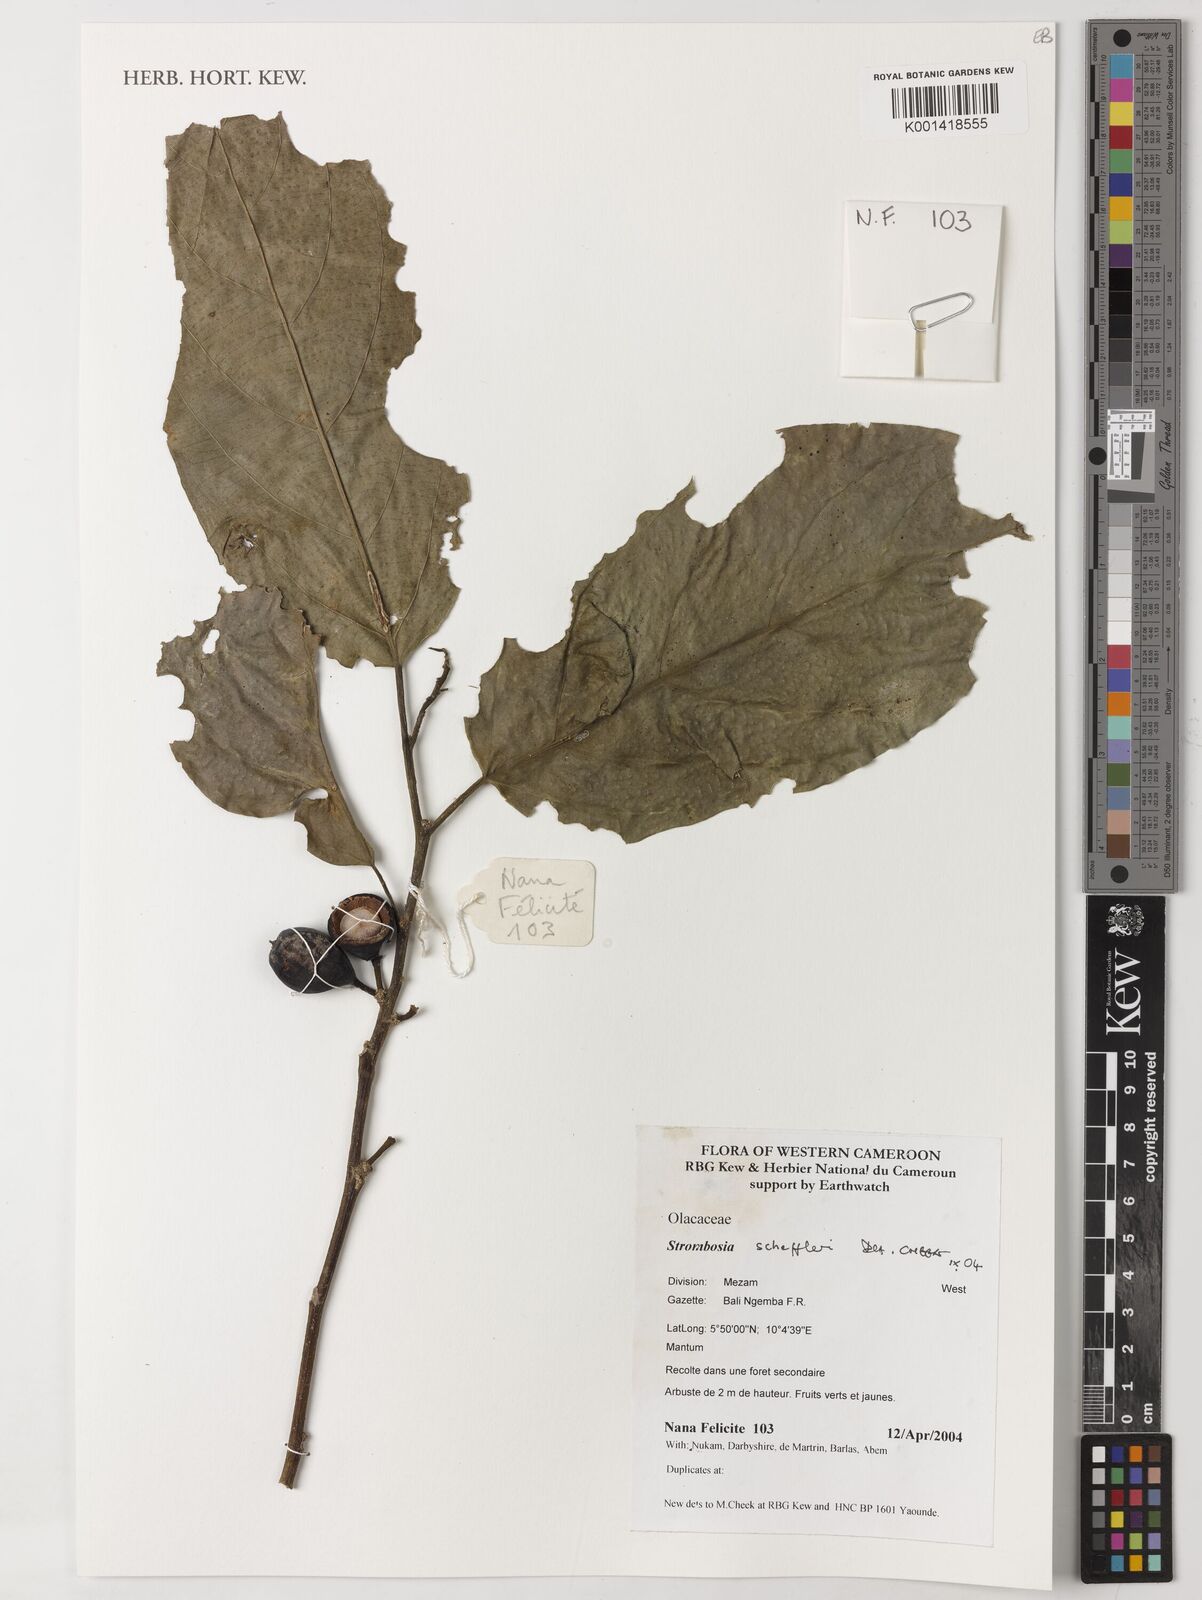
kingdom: Plantae
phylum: Tracheophyta
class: Magnoliopsida
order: Santalales
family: Strombosiaceae
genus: Strombosia
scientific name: Strombosia scheffleri
